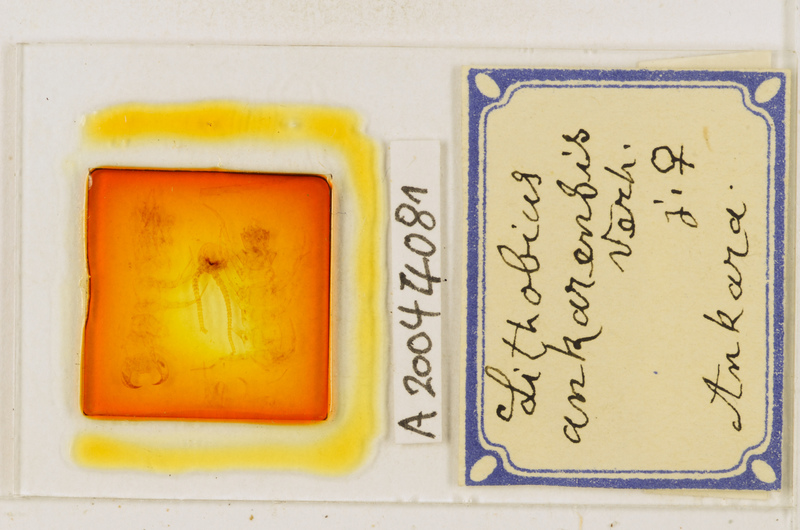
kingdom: Animalia
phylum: Arthropoda
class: Chilopoda
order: Lithobiomorpha
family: Lithobiidae
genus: Lithobius
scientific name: Lithobius nigripalpis
